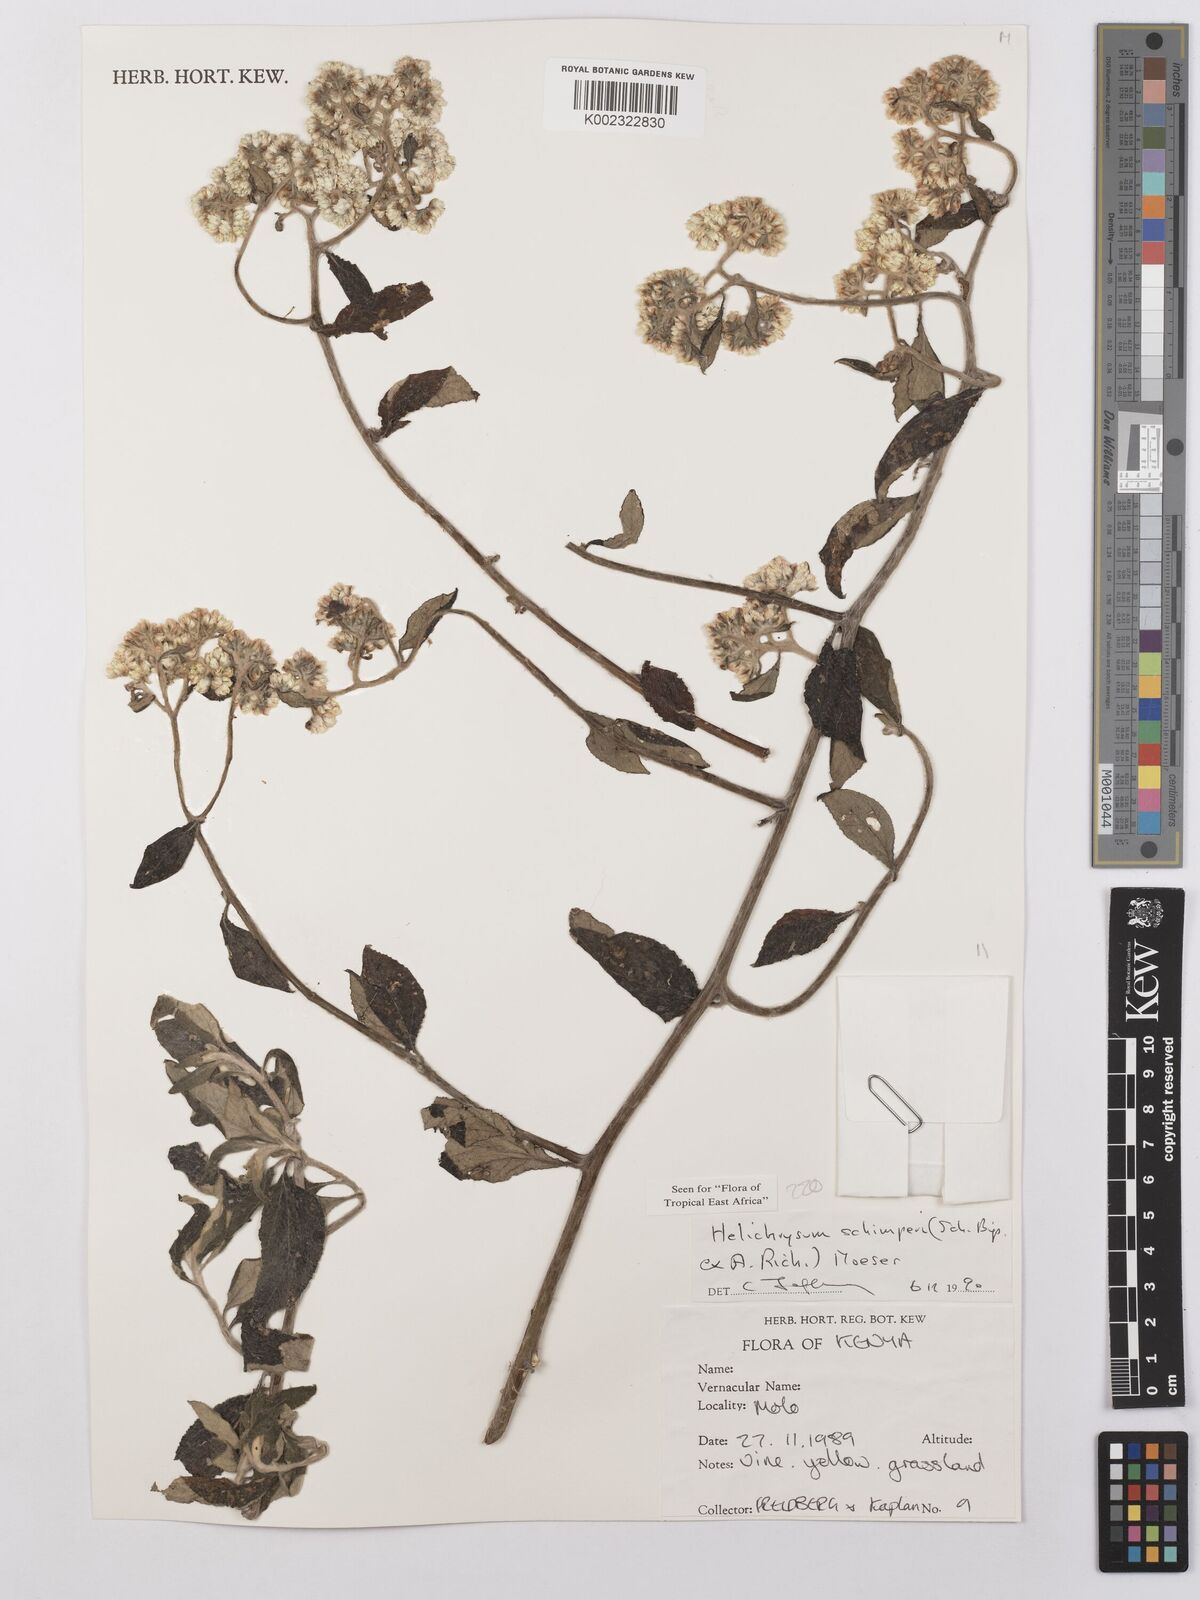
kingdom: Plantae
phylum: Tracheophyta
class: Magnoliopsida
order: Asterales
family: Asteraceae
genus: Helichrysum
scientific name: Helichrysum schimperi
